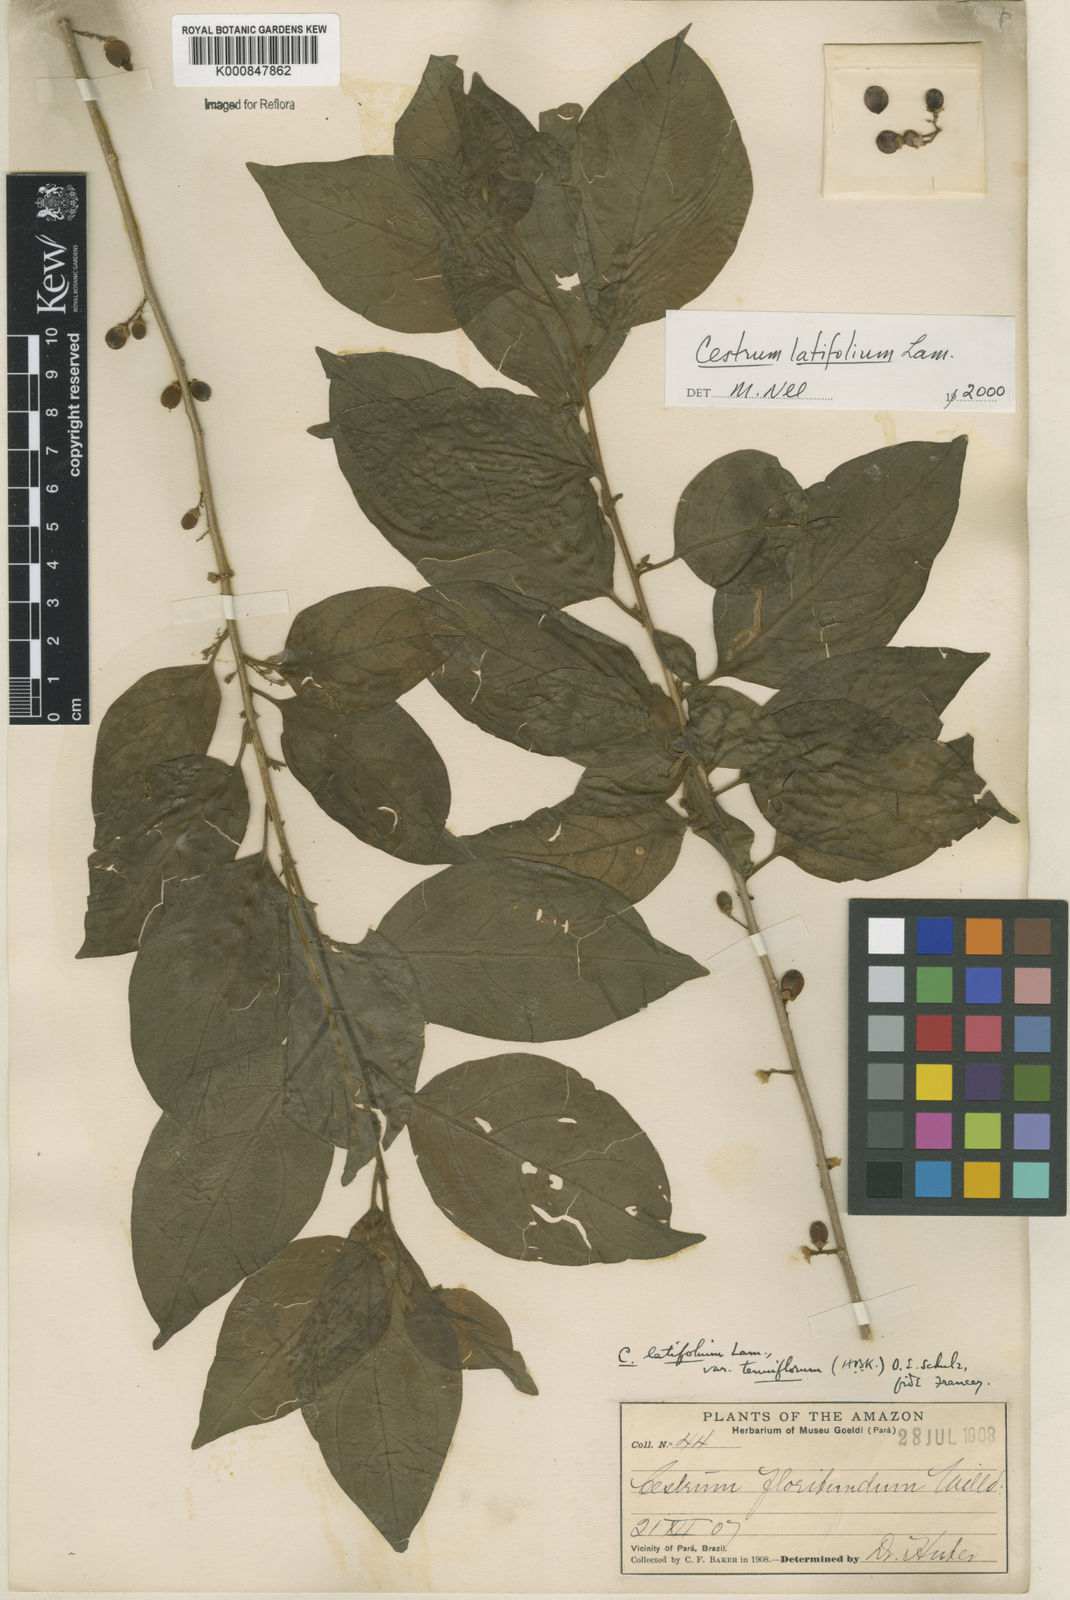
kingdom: Plantae
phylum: Tracheophyta
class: Magnoliopsida
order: Solanales
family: Solanaceae
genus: Cestrum
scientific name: Cestrum latifolium
